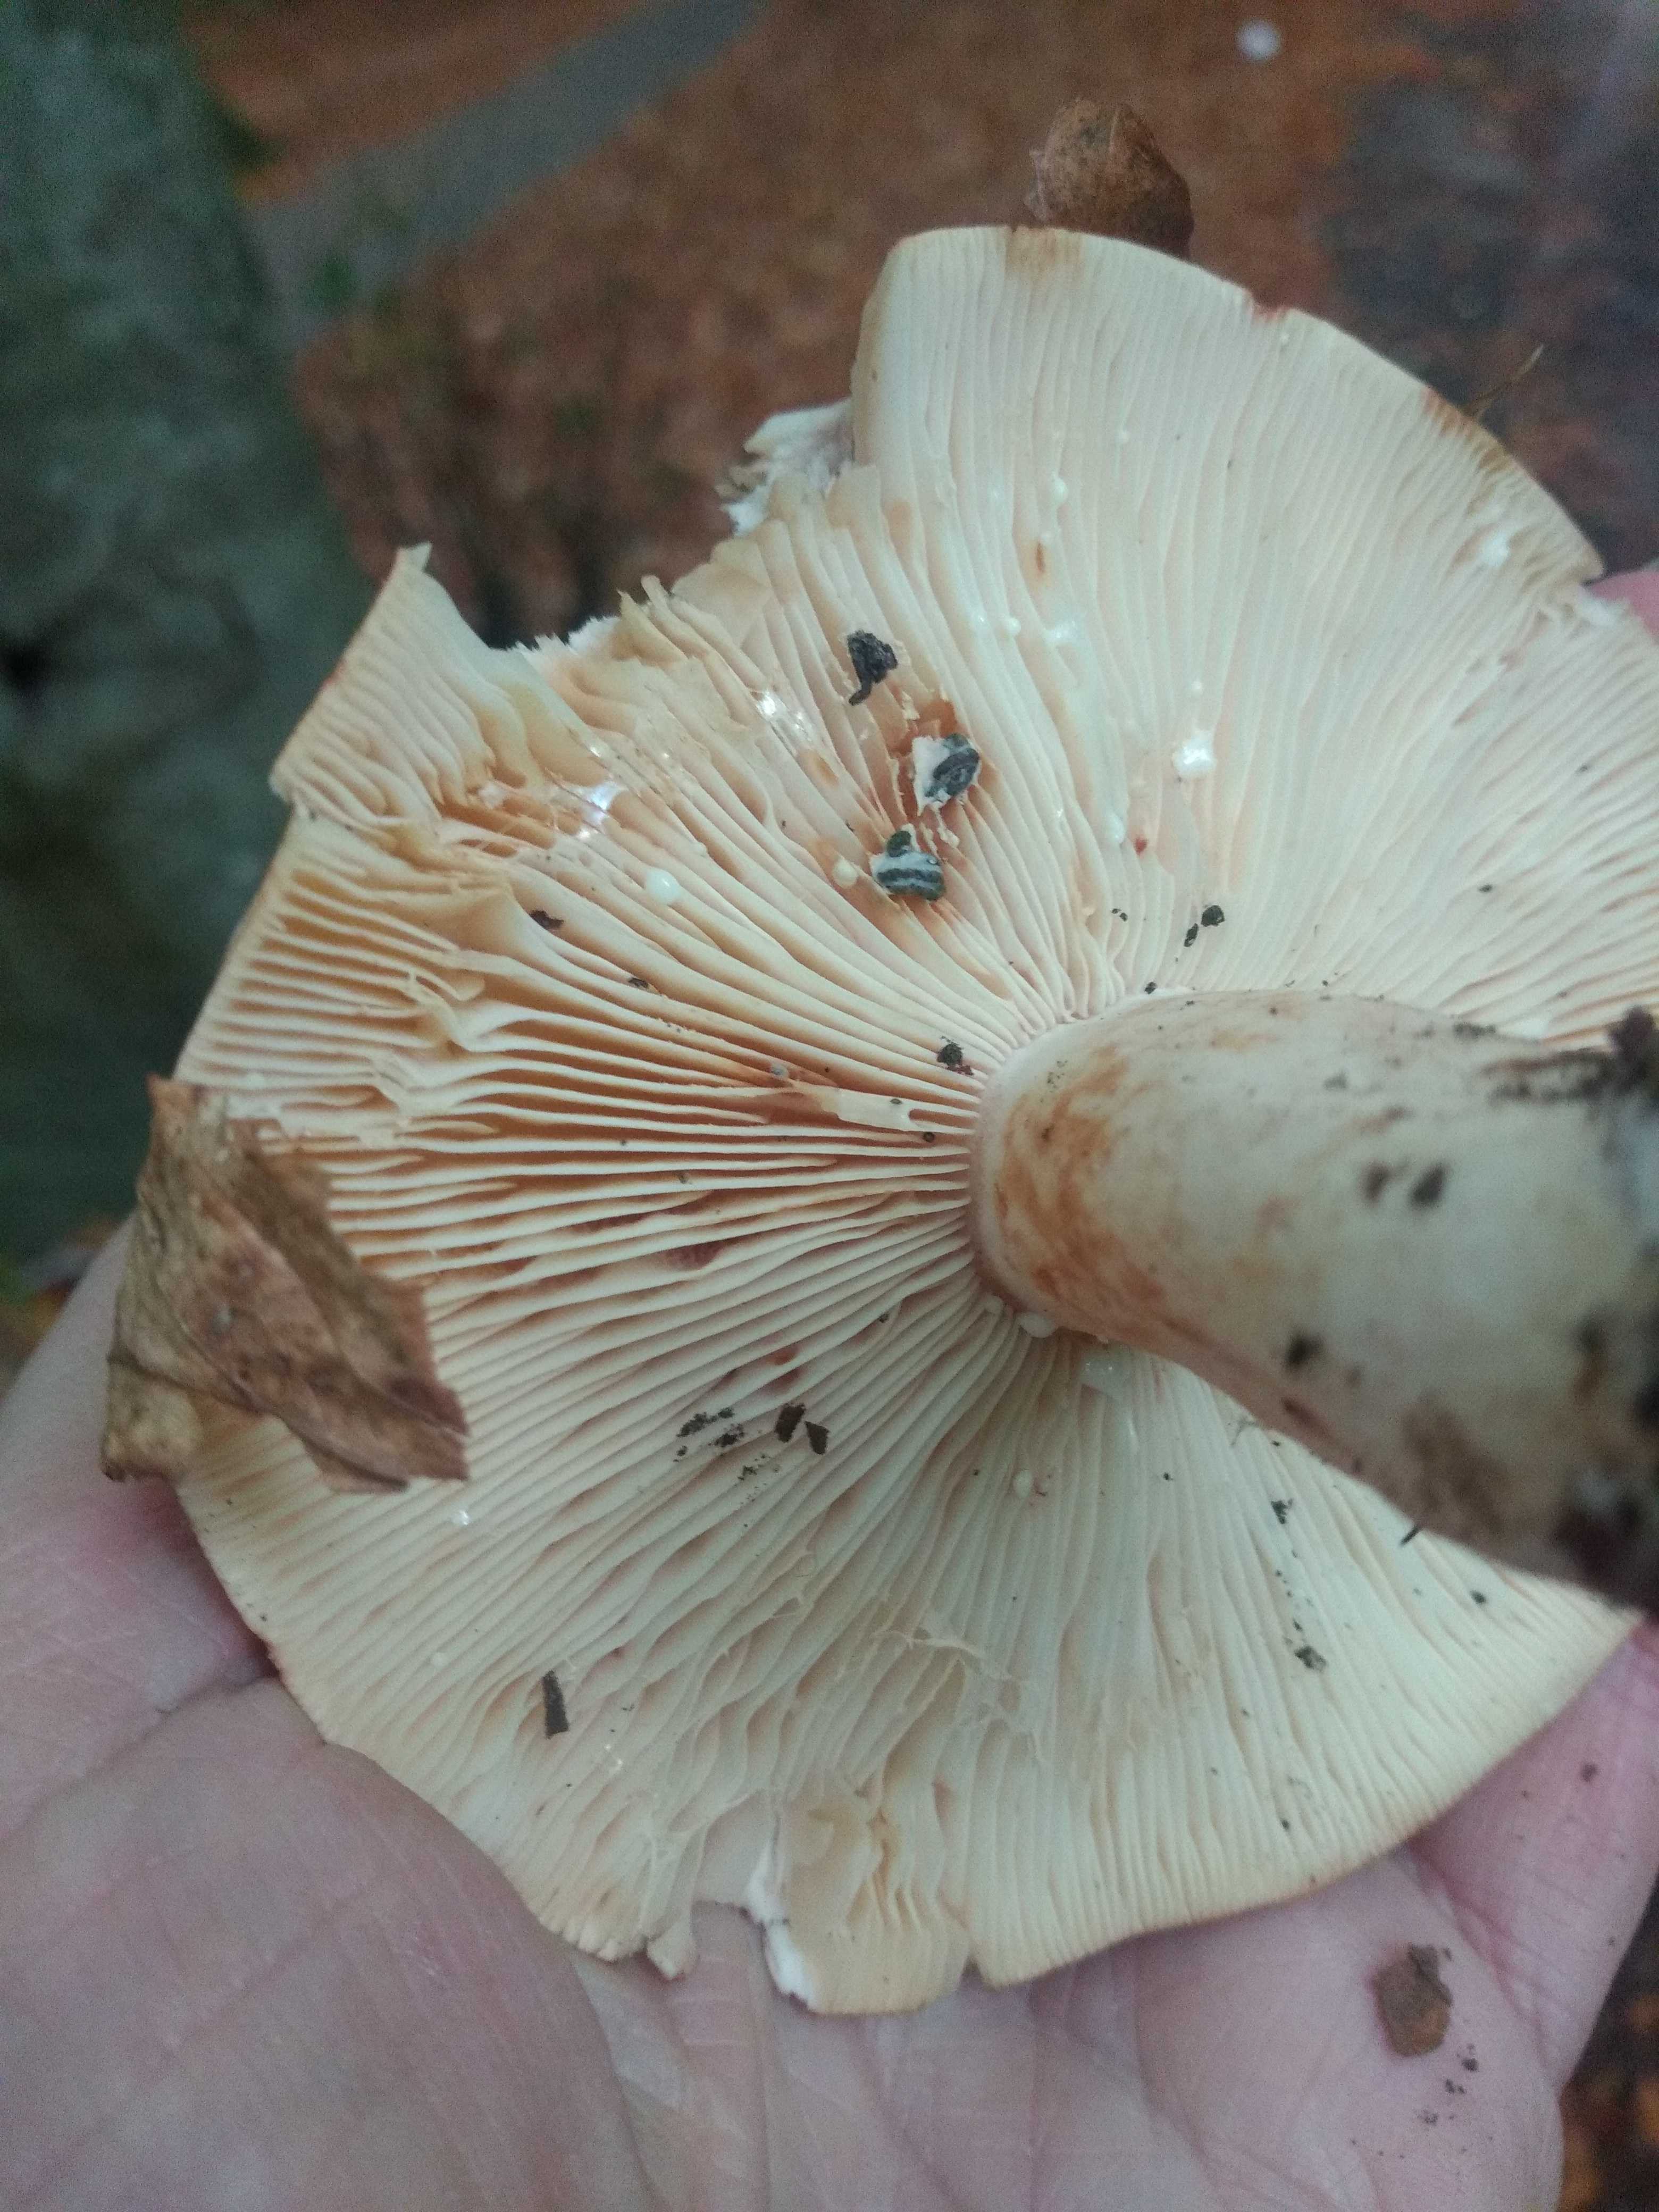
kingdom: Fungi
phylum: Basidiomycota
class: Agaricomycetes
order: Russulales
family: Russulaceae
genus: Lactarius
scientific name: Lactarius pallidus
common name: bleg mælkehat
